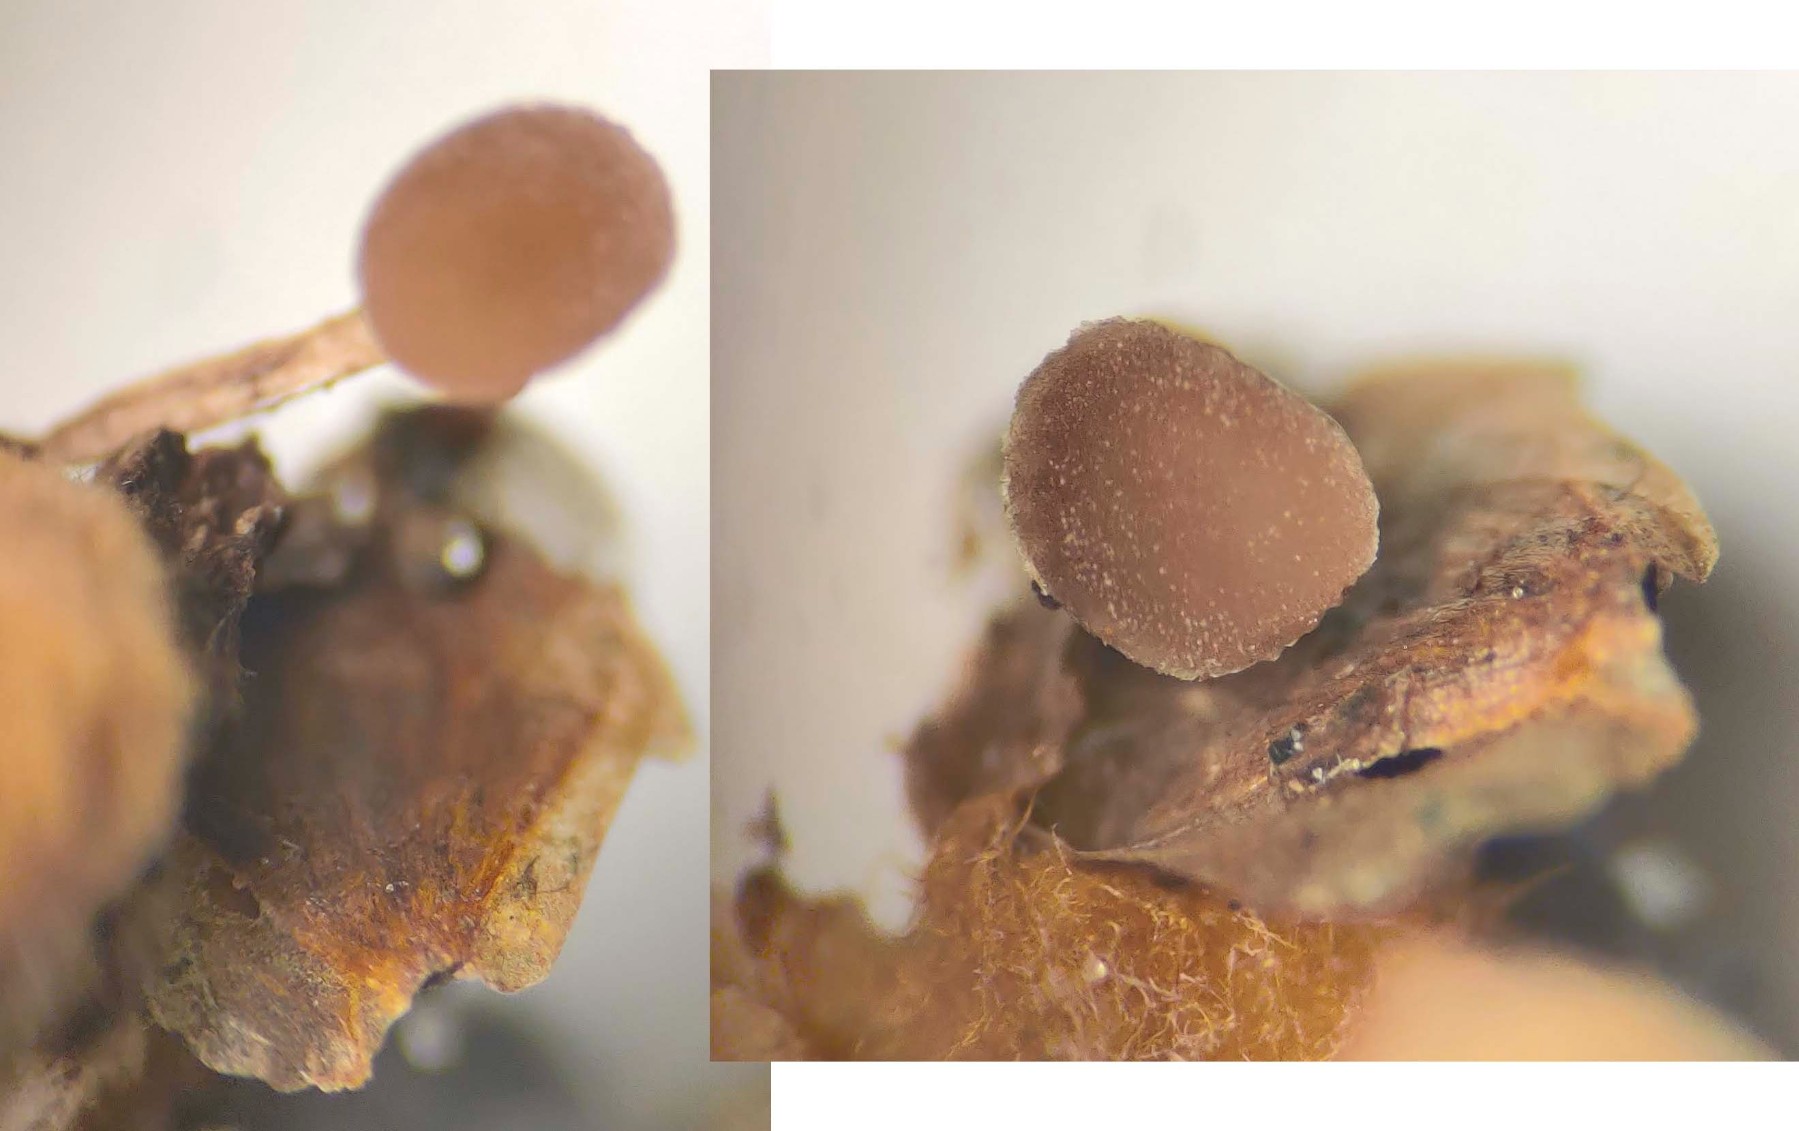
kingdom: Fungi
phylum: Ascomycota
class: Leotiomycetes
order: Helotiales
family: Sclerotiniaceae
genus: Ciboria
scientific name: Ciboria betulae
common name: birkefrø-knoldskive
